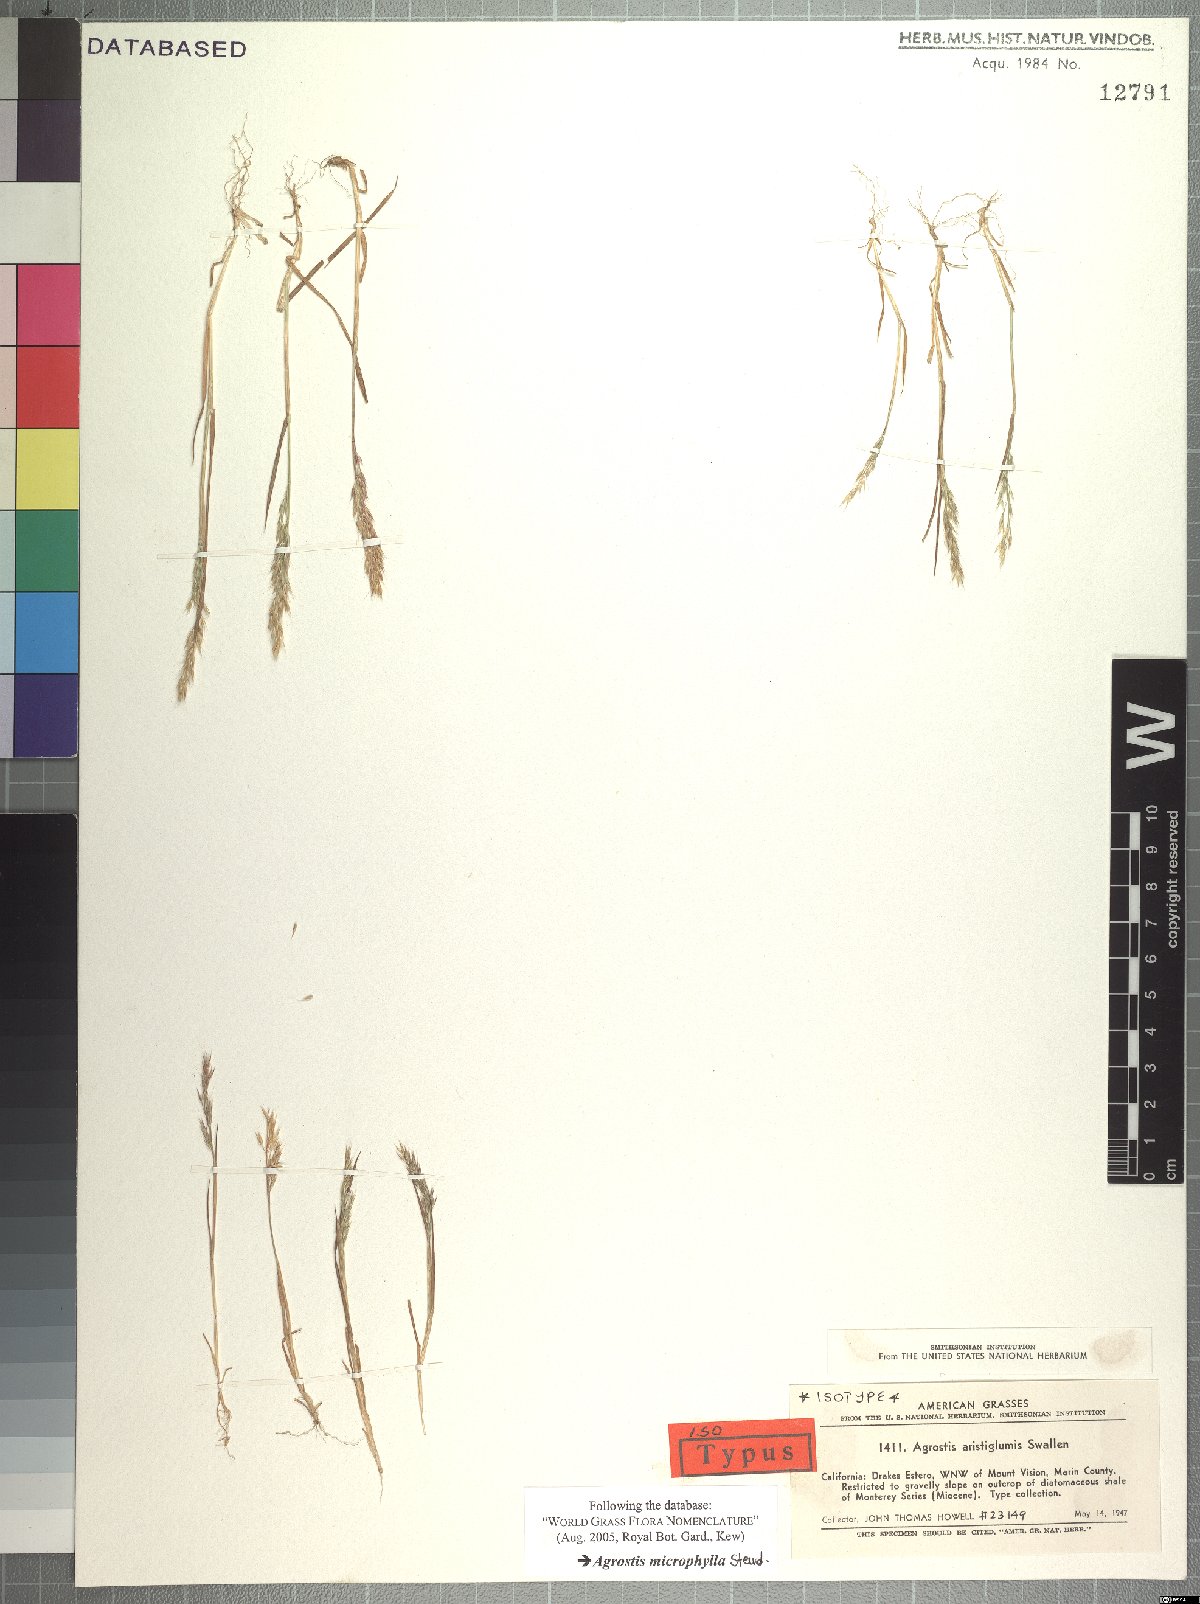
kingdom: Plantae
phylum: Tracheophyta
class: Liliopsida
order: Poales
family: Poaceae
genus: Agrostis
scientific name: Agrostis microphylla
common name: Small-leaf bent
